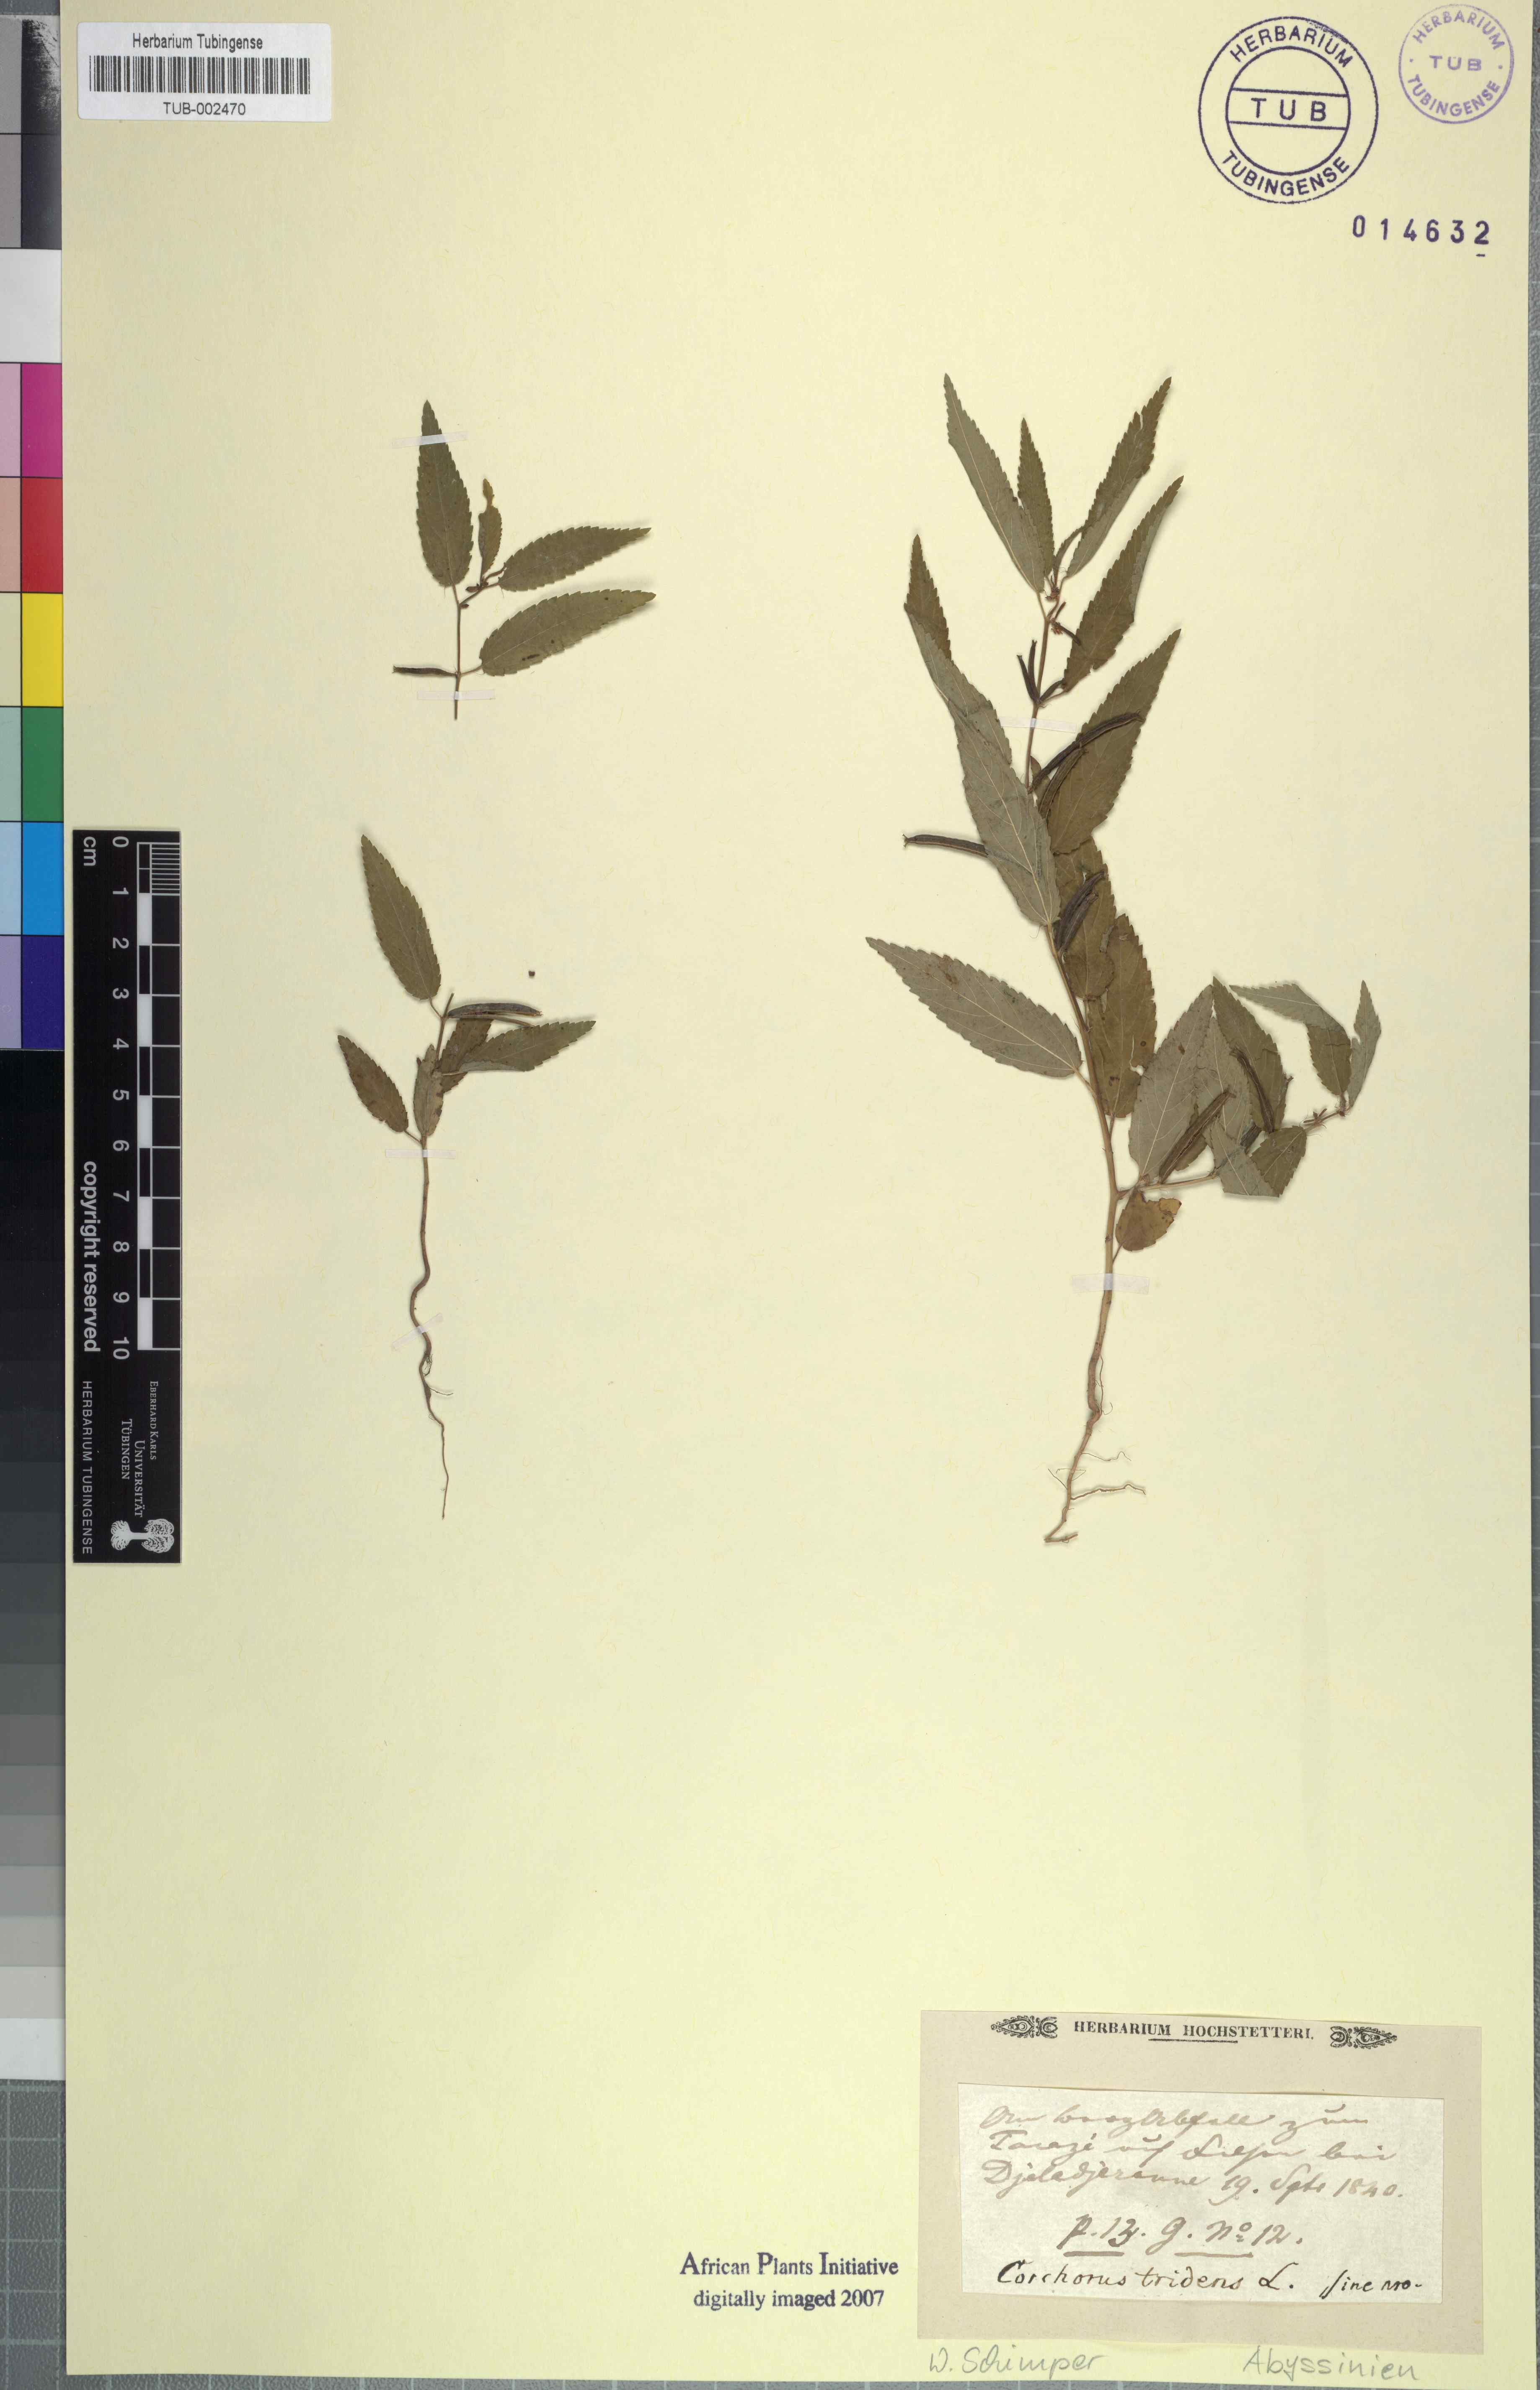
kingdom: Plantae
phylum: Tracheophyta
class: Magnoliopsida
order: Malvales
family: Malvaceae
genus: Corchorus
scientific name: Corchorus tridens
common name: Wild jute
